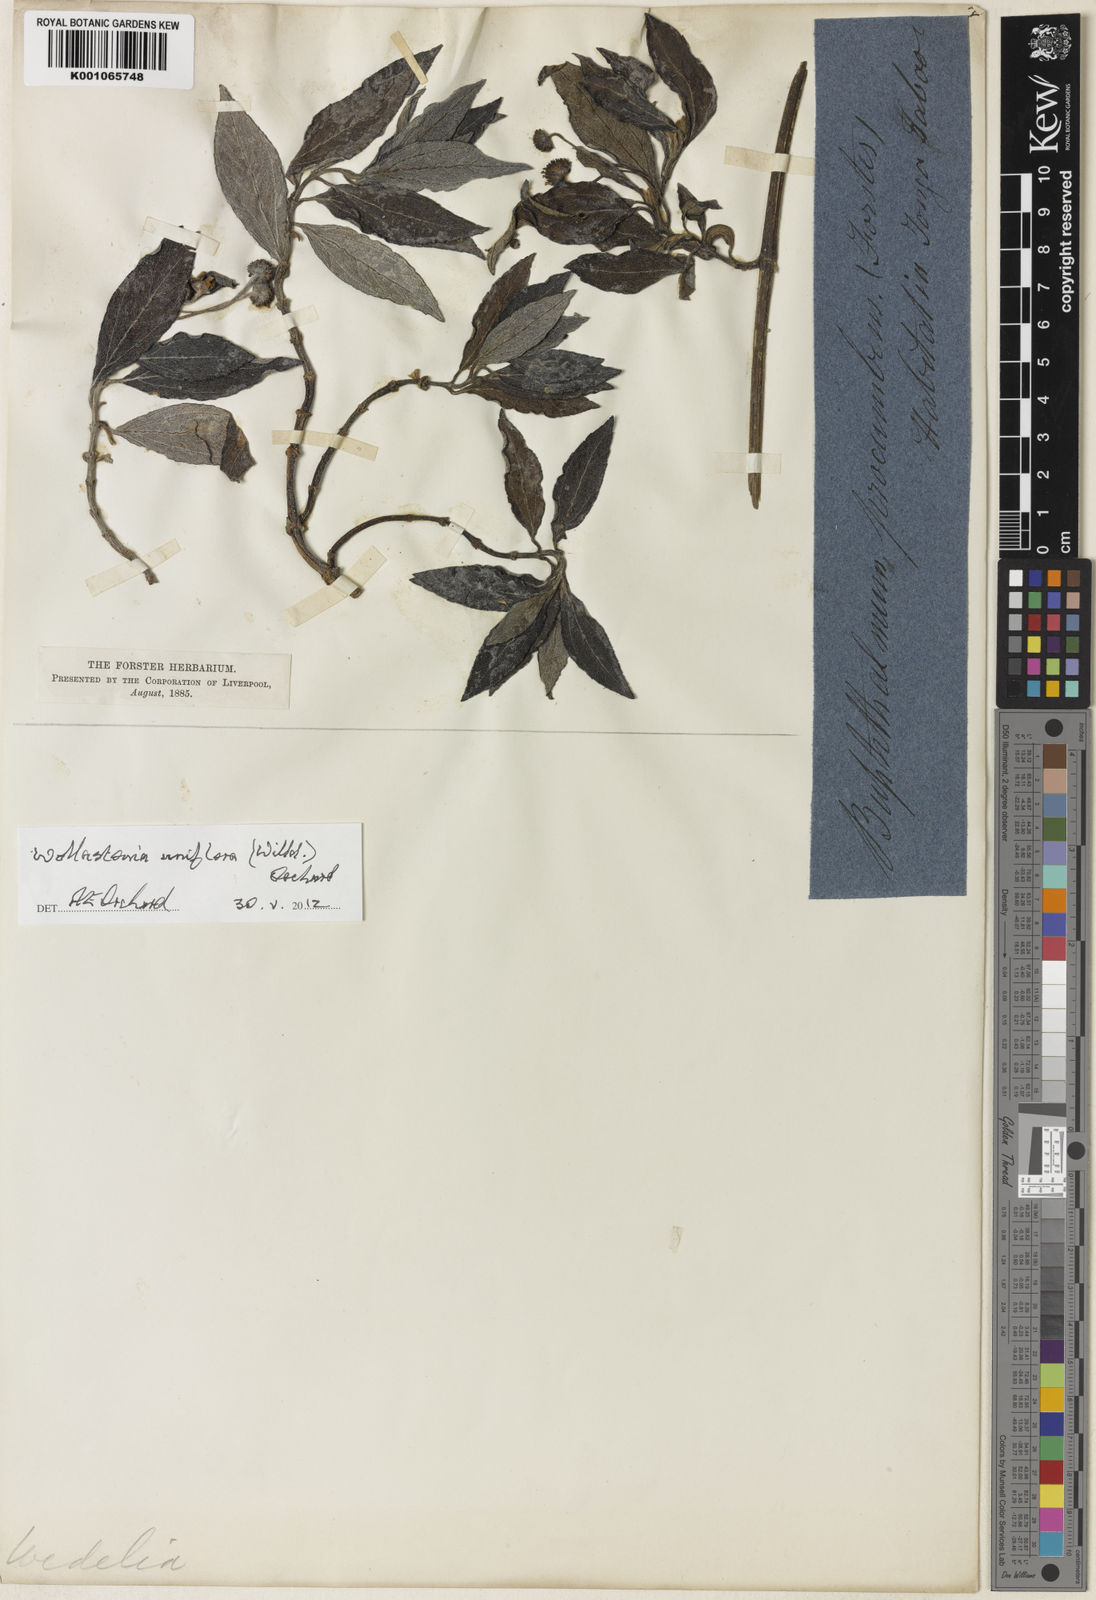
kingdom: Plantae
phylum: Tracheophyta
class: Magnoliopsida
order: Asterales
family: Asteraceae
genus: Wollastonia
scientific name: Wollastonia uniflora
